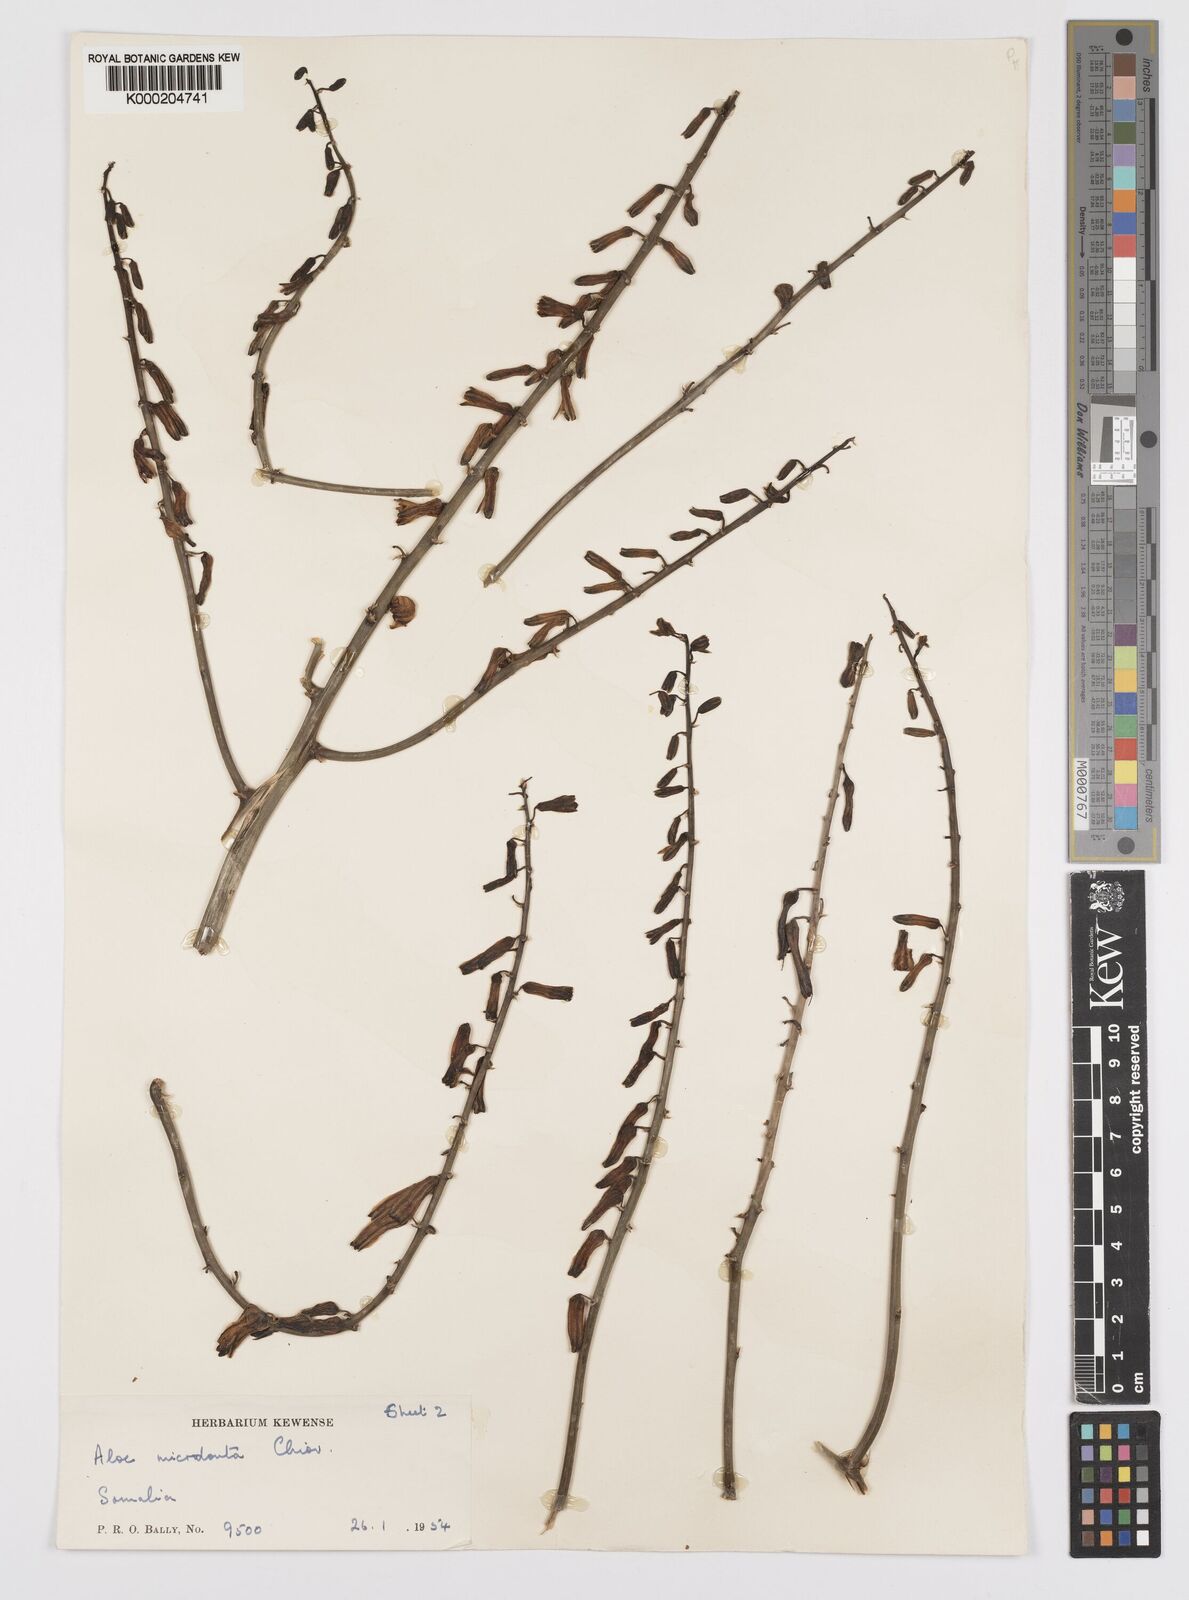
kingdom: Plantae
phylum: Tracheophyta
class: Liliopsida
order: Asparagales
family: Asphodelaceae
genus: Aloe
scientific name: Aloe microdonta
